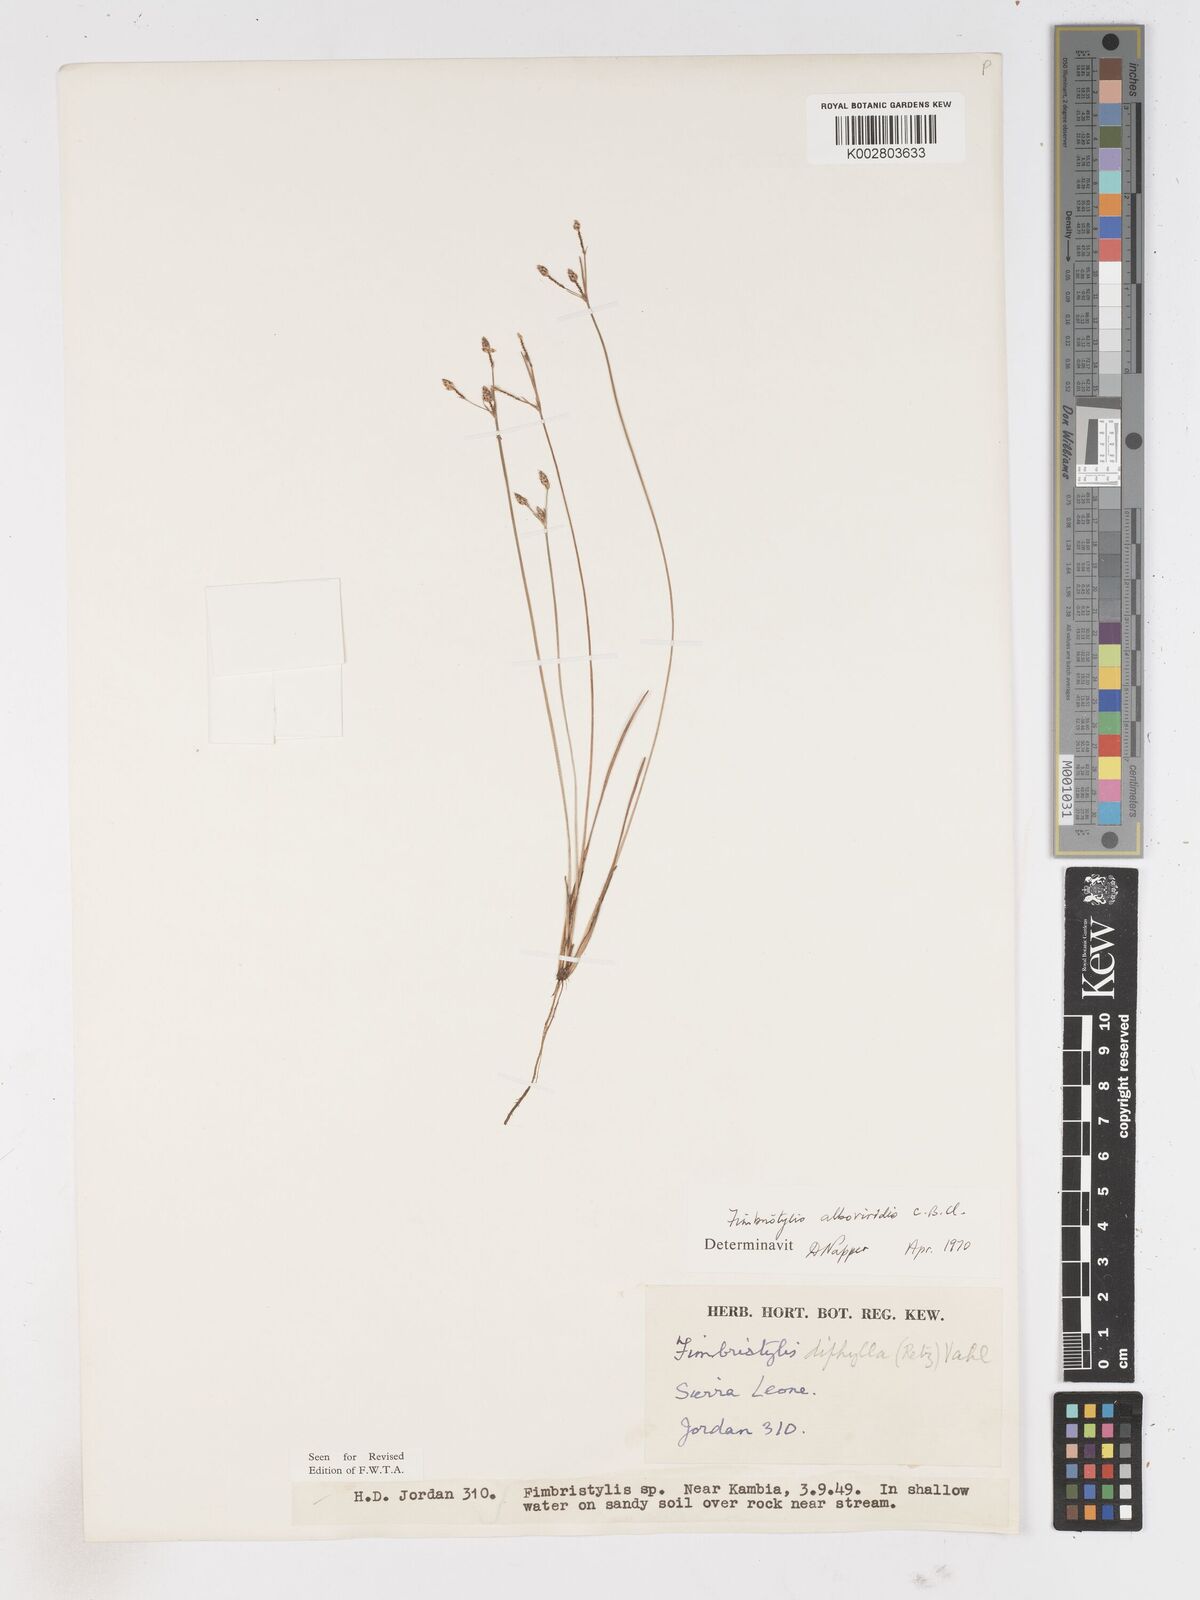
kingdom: Plantae
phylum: Tracheophyta
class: Liliopsida
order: Poales
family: Cyperaceae
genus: Fimbristylis
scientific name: Fimbristylis alboviridis
